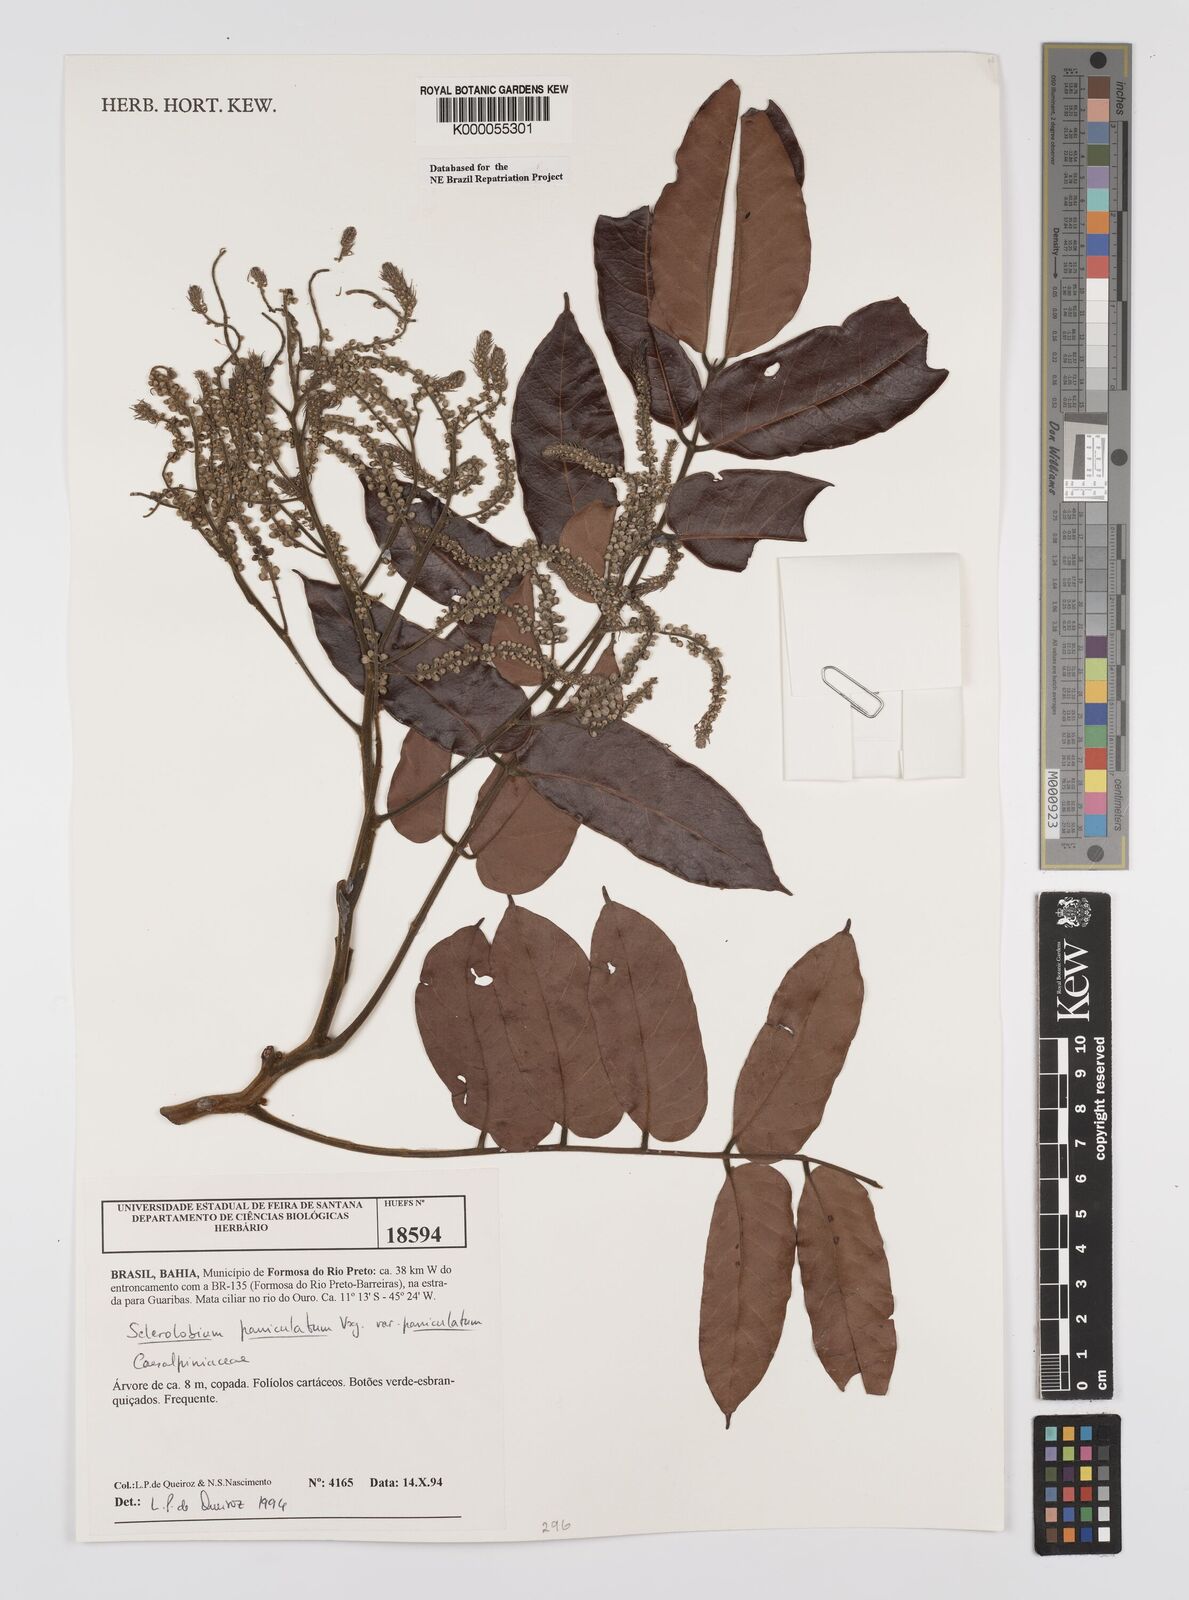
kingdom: Plantae
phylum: Tracheophyta
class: Magnoliopsida
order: Fabales
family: Fabaceae
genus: Tachigali
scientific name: Tachigali vulgaris
